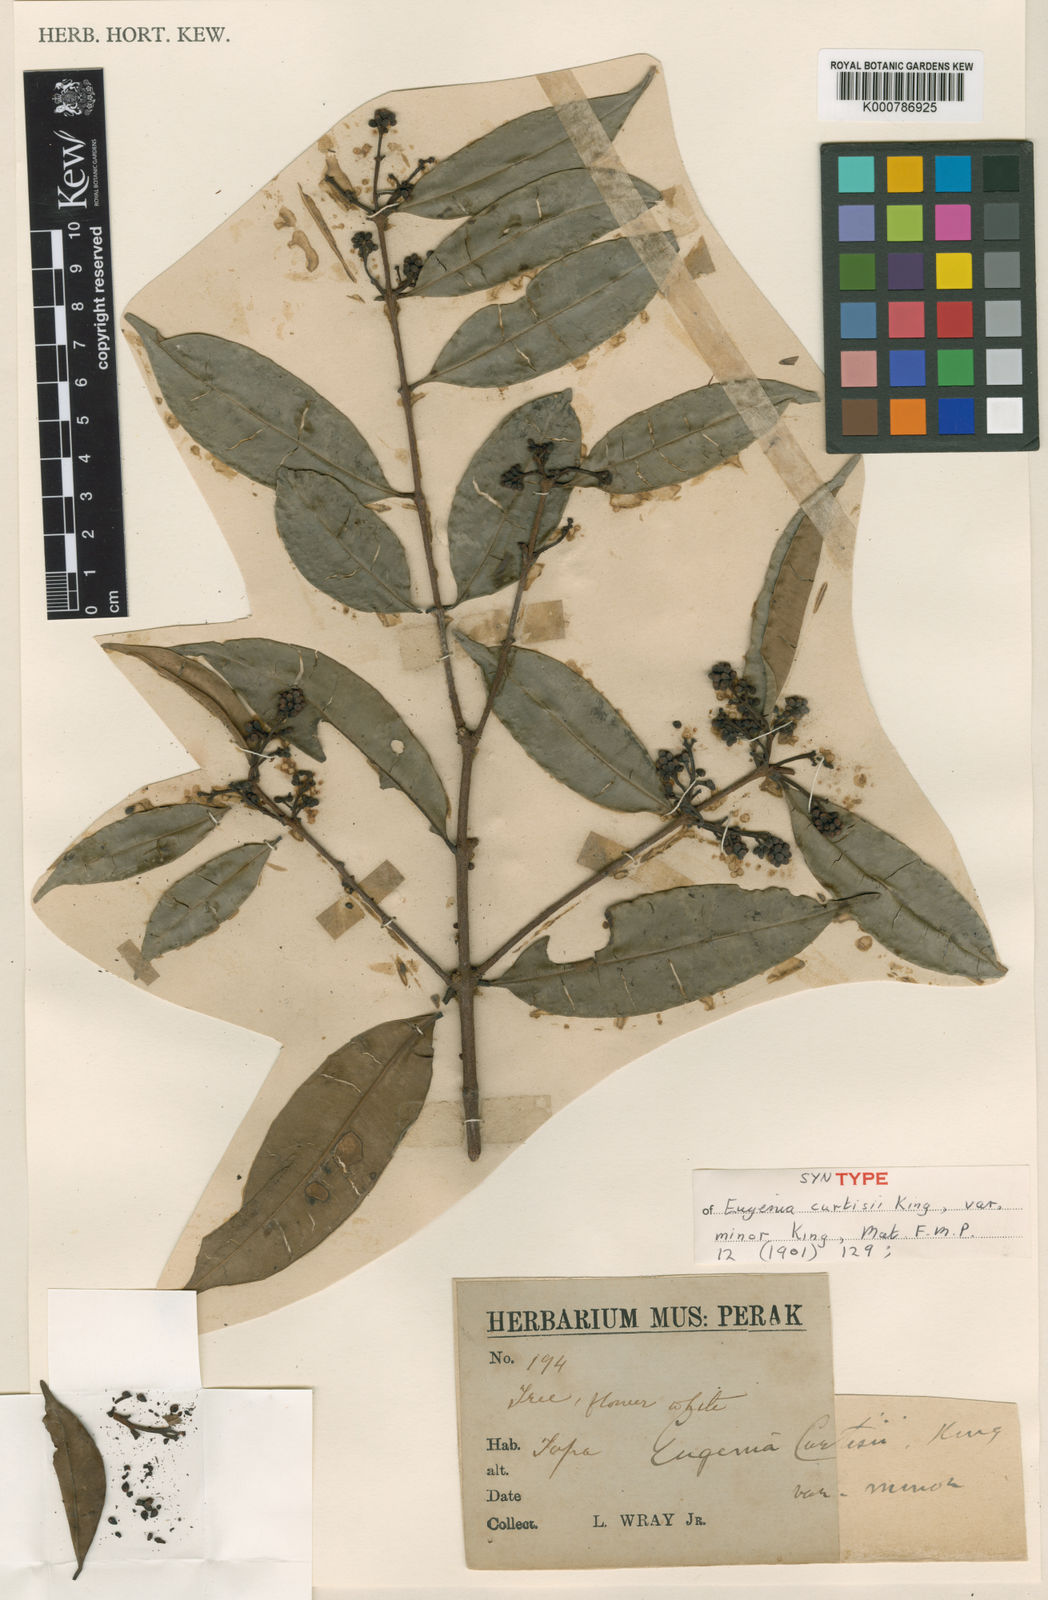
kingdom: Plantae
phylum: Tracheophyta
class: Magnoliopsida
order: Myrtales
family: Myrtaceae
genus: Syzygium
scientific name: Syzygium curtisii
